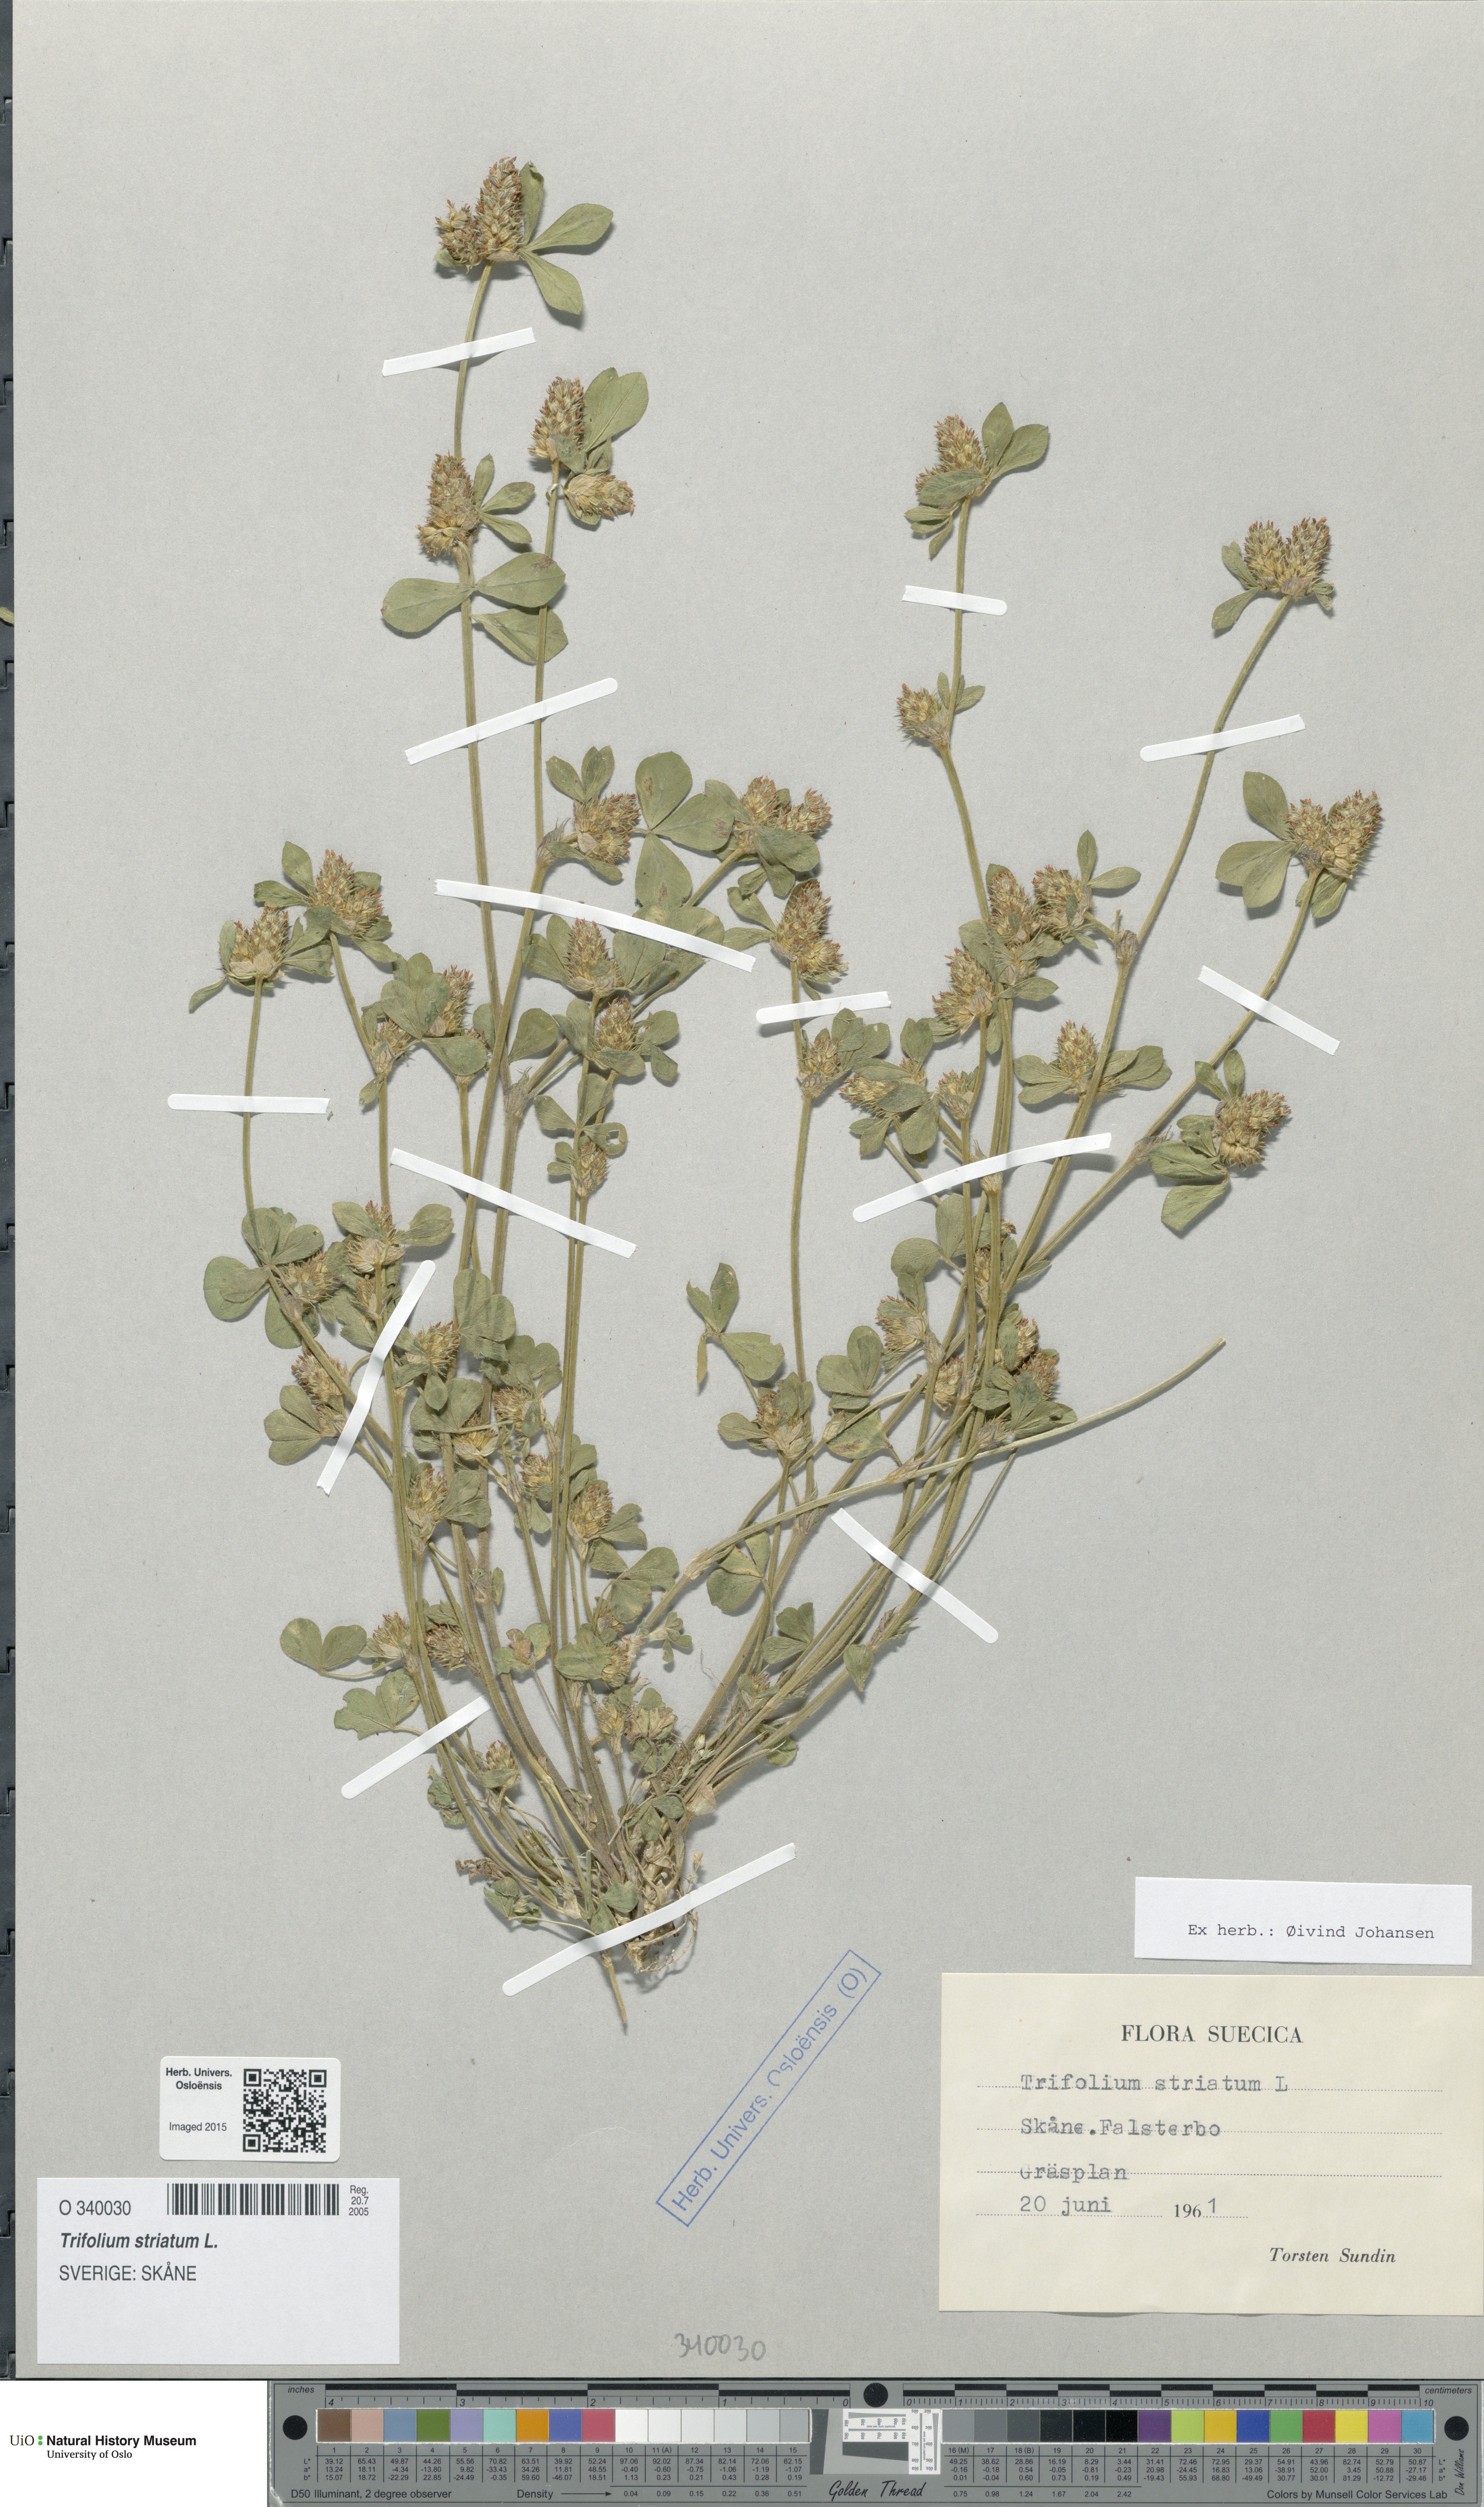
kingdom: Plantae
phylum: Tracheophyta
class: Magnoliopsida
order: Fabales
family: Fabaceae
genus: Trifolium
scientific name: Trifolium striatum
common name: Knotted clover
